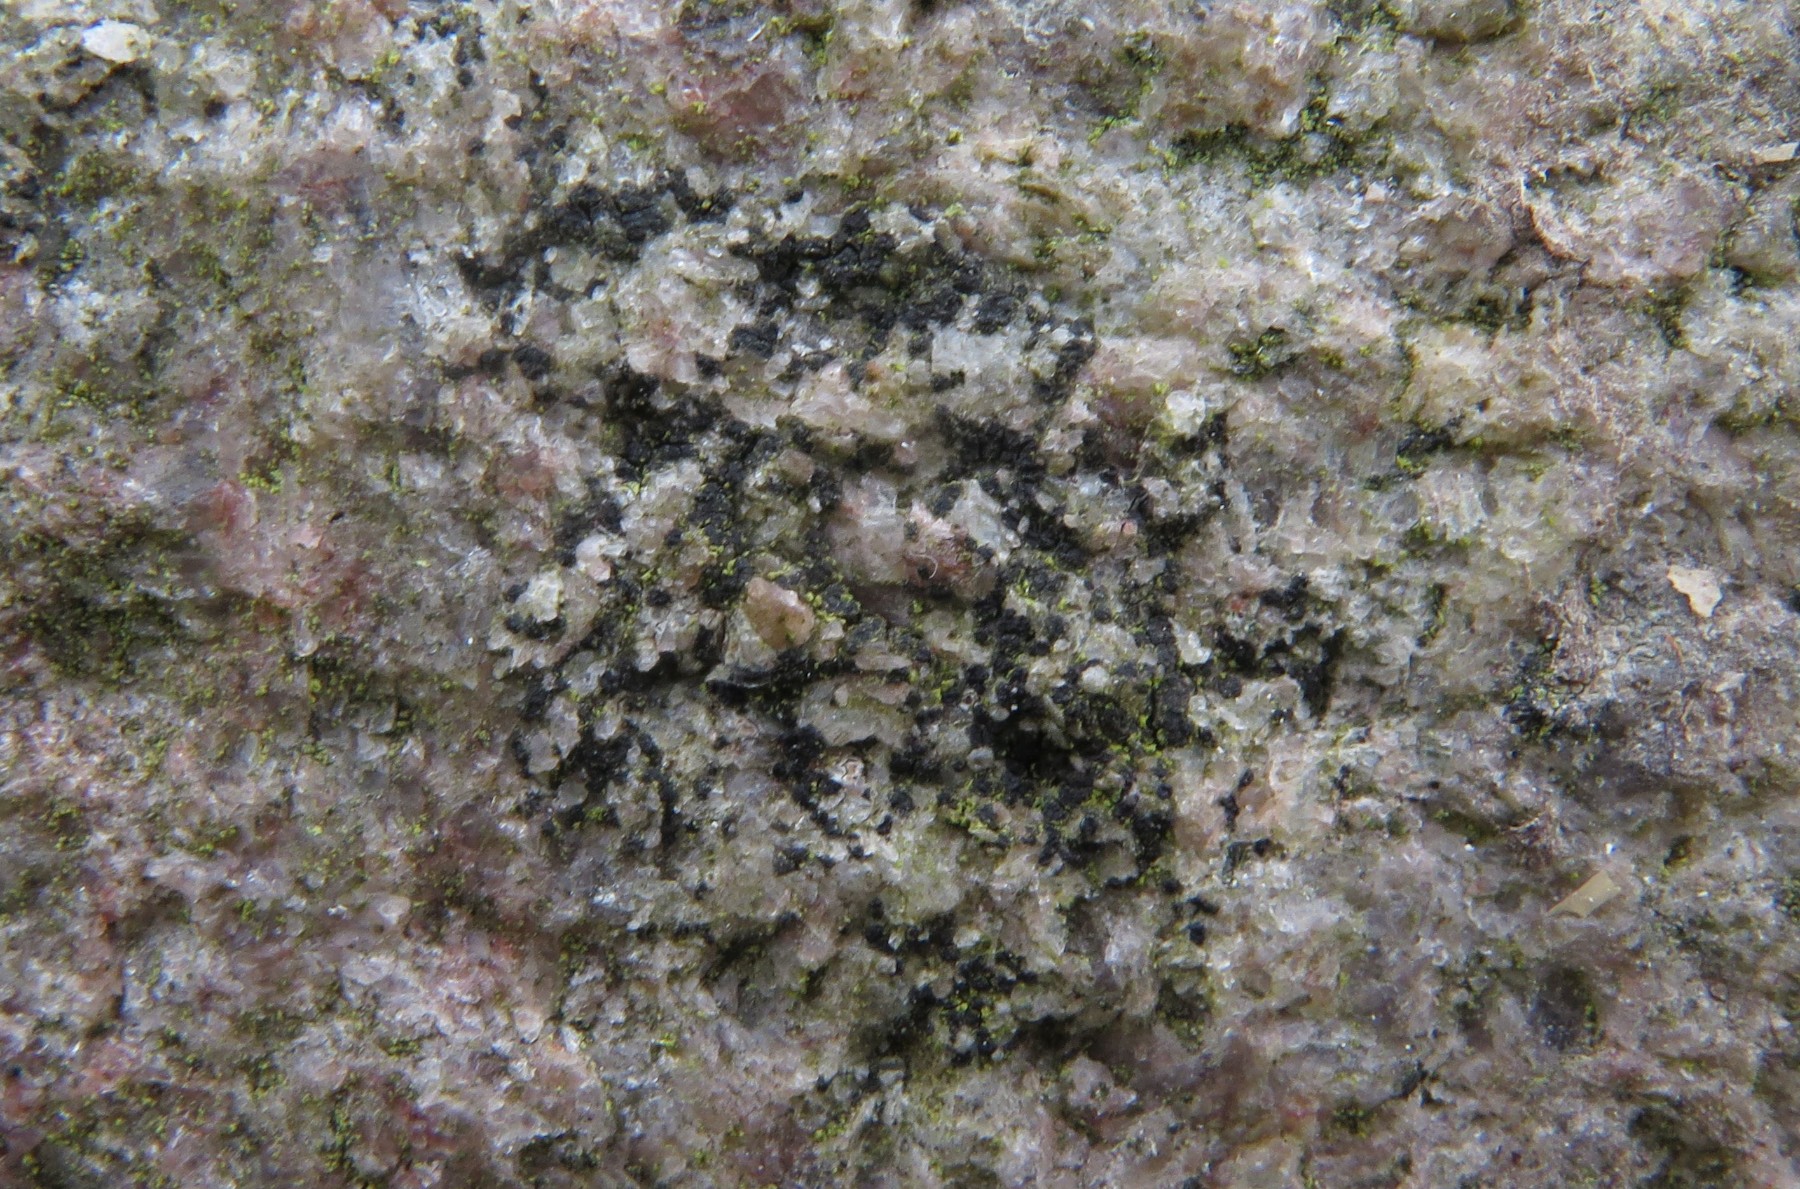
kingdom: Fungi
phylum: Ascomycota
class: Lecanoromycetes
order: Acarosporales
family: Acarosporaceae
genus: Acarospora
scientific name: Acarospora privigna
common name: sort foldekantlav
